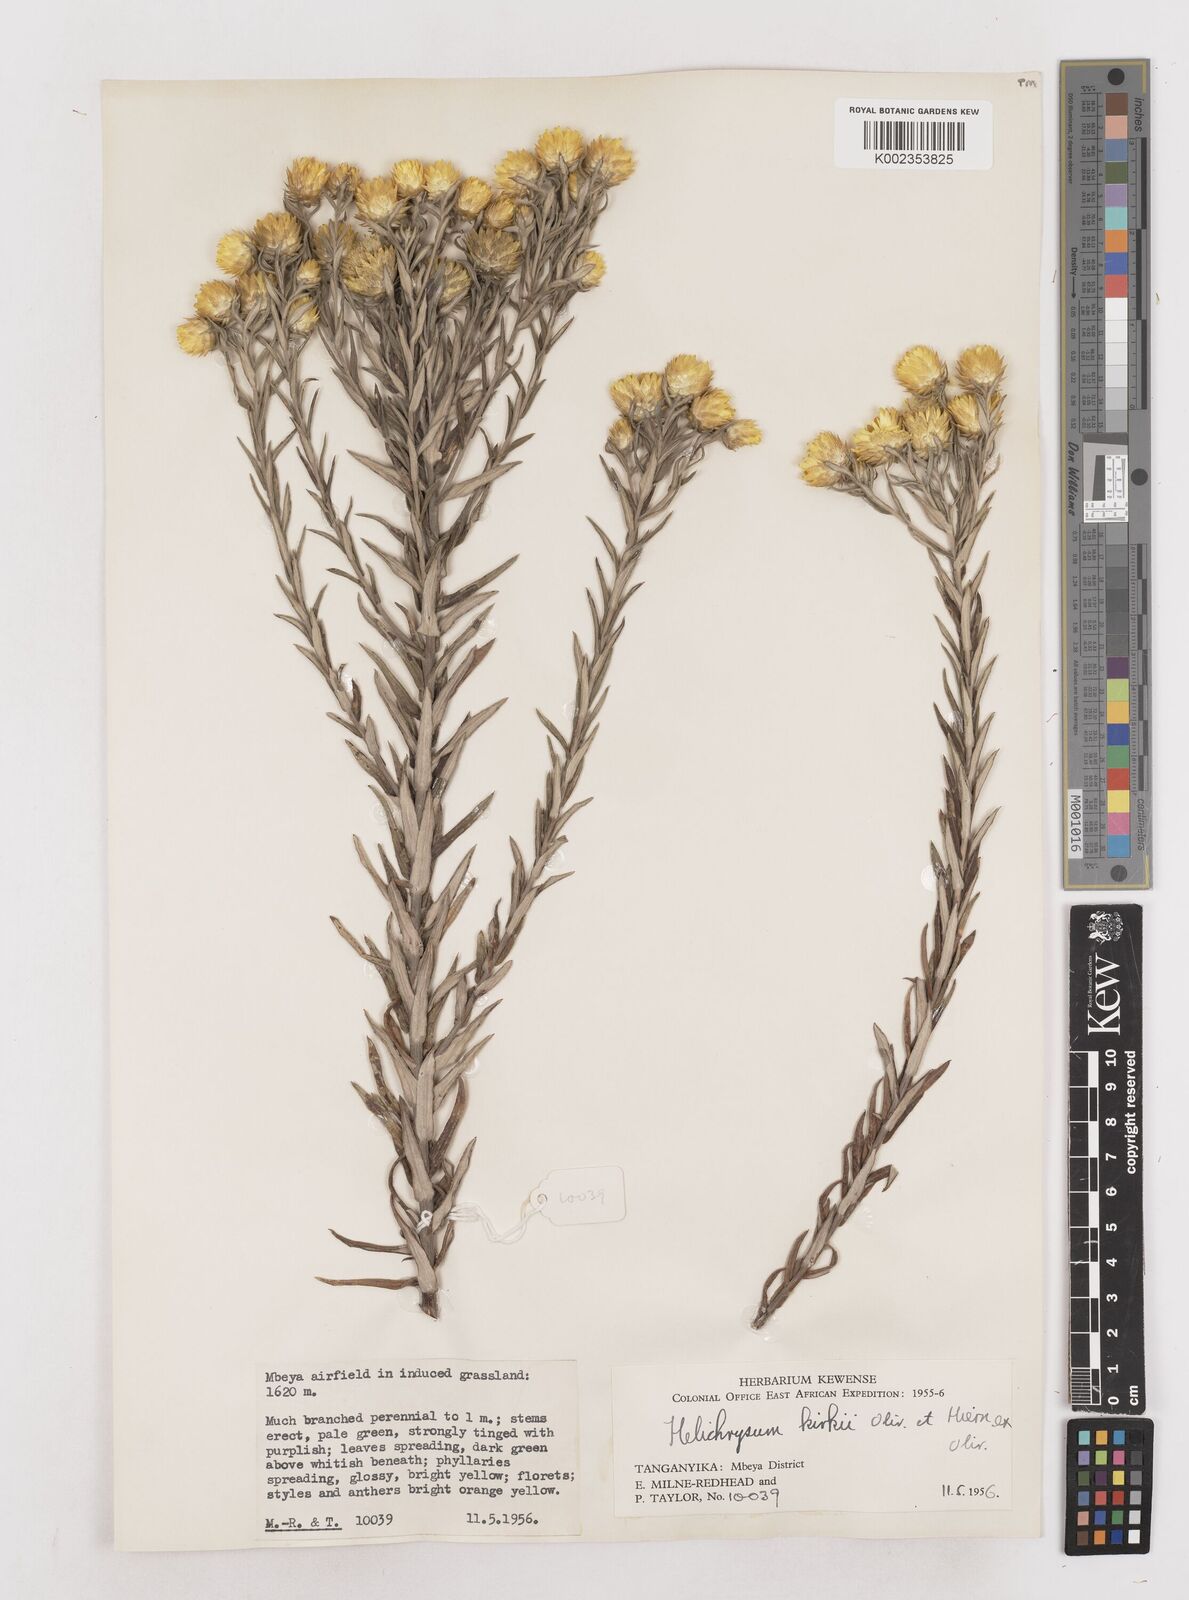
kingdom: Plantae
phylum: Tracheophyta
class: Magnoliopsida
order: Asterales
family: Asteraceae
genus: Helichrysum
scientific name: Helichrysum kirkii
